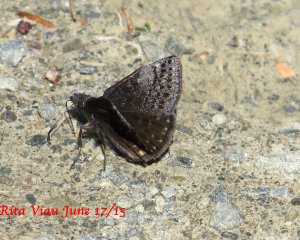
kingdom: Animalia
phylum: Arthropoda
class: Insecta
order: Lepidoptera
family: Hesperiidae
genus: Erynnis
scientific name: Erynnis icelus
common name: Dreamy Duskywing
